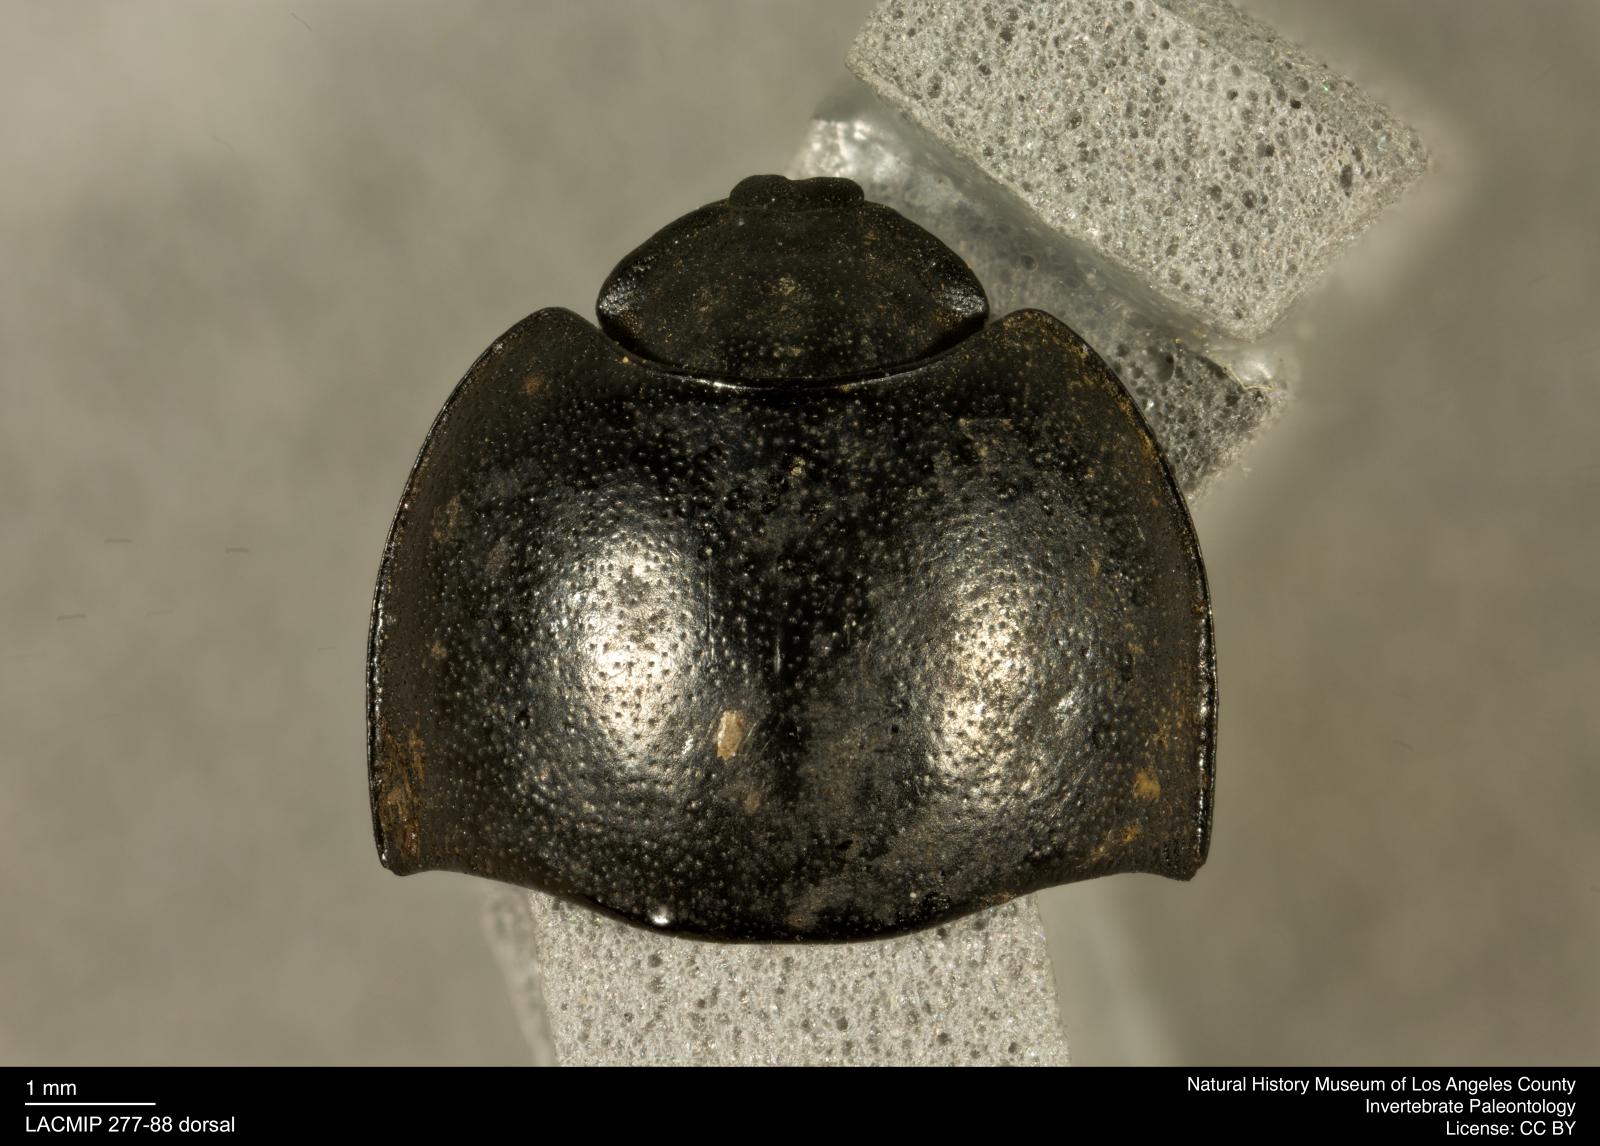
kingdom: Animalia
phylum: Arthropoda
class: Insecta
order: Coleoptera
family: Tenebrionidae
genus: Coniontis
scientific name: Coniontis abdominalis
